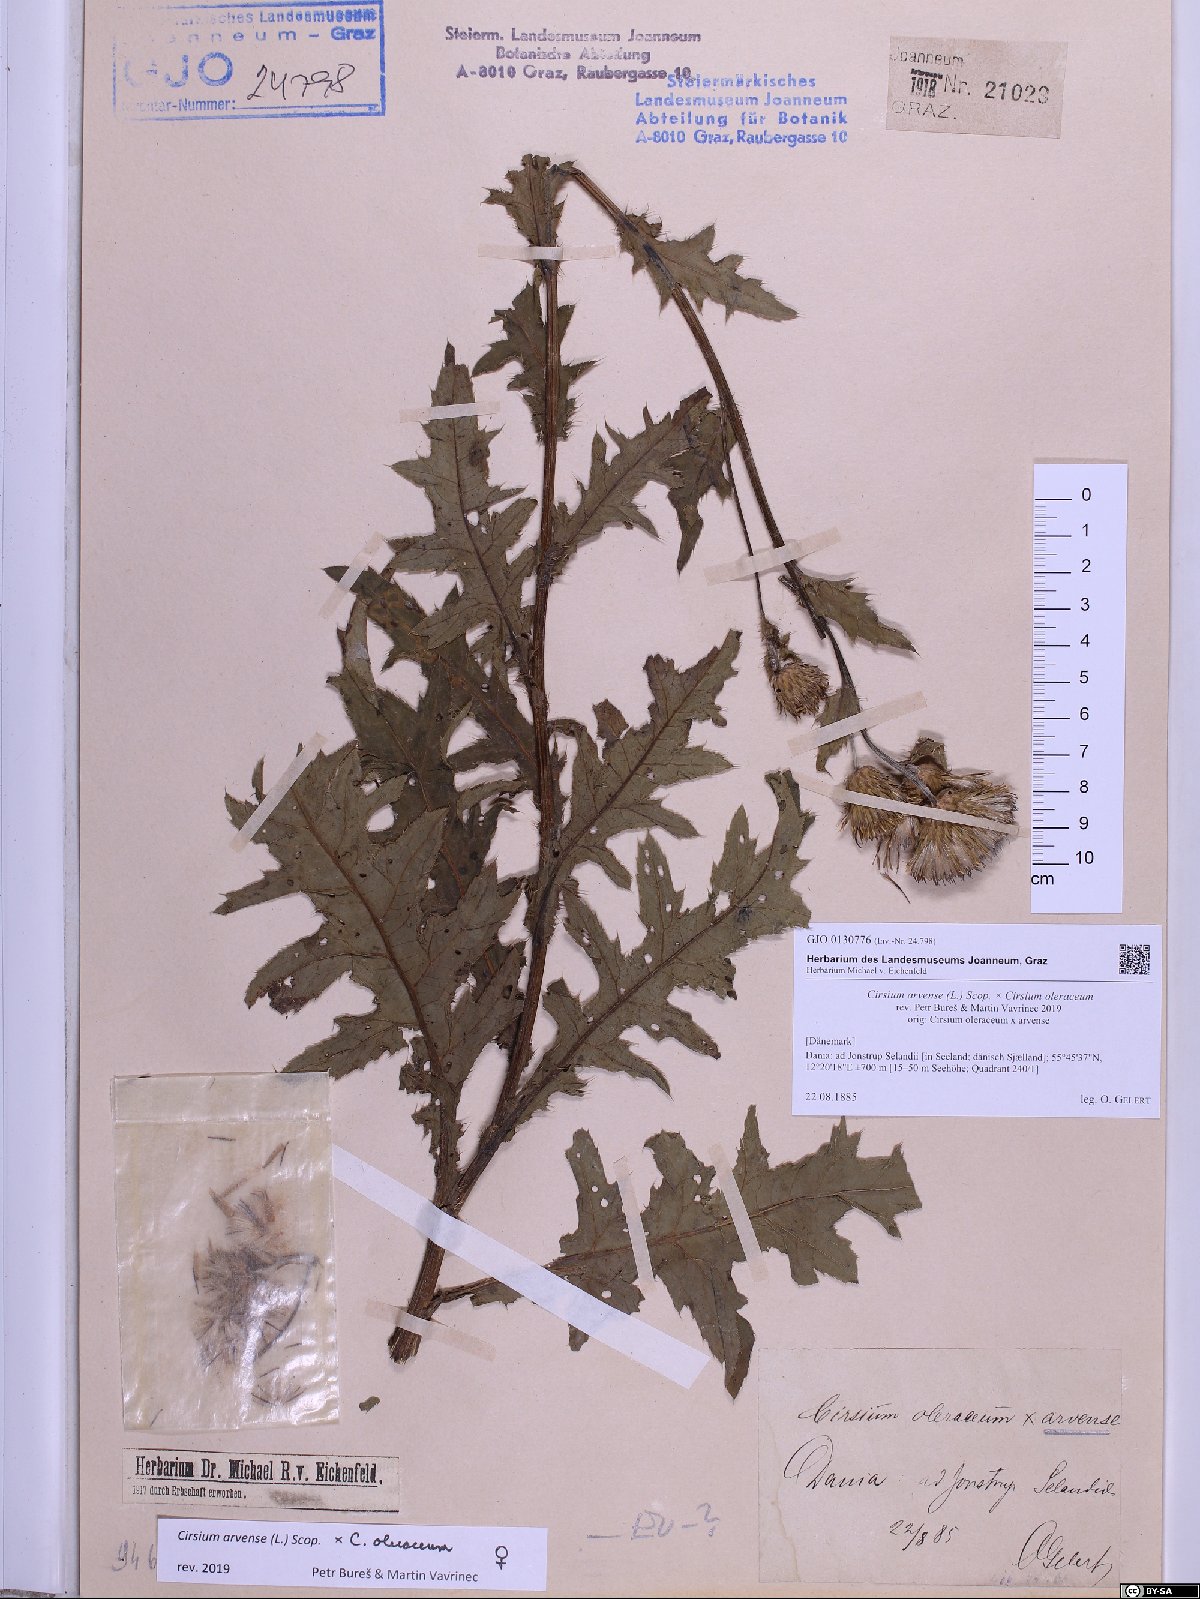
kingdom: Plantae
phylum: Tracheophyta
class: Magnoliopsida
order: Asterales
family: Asteraceae
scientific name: Asteraceae
